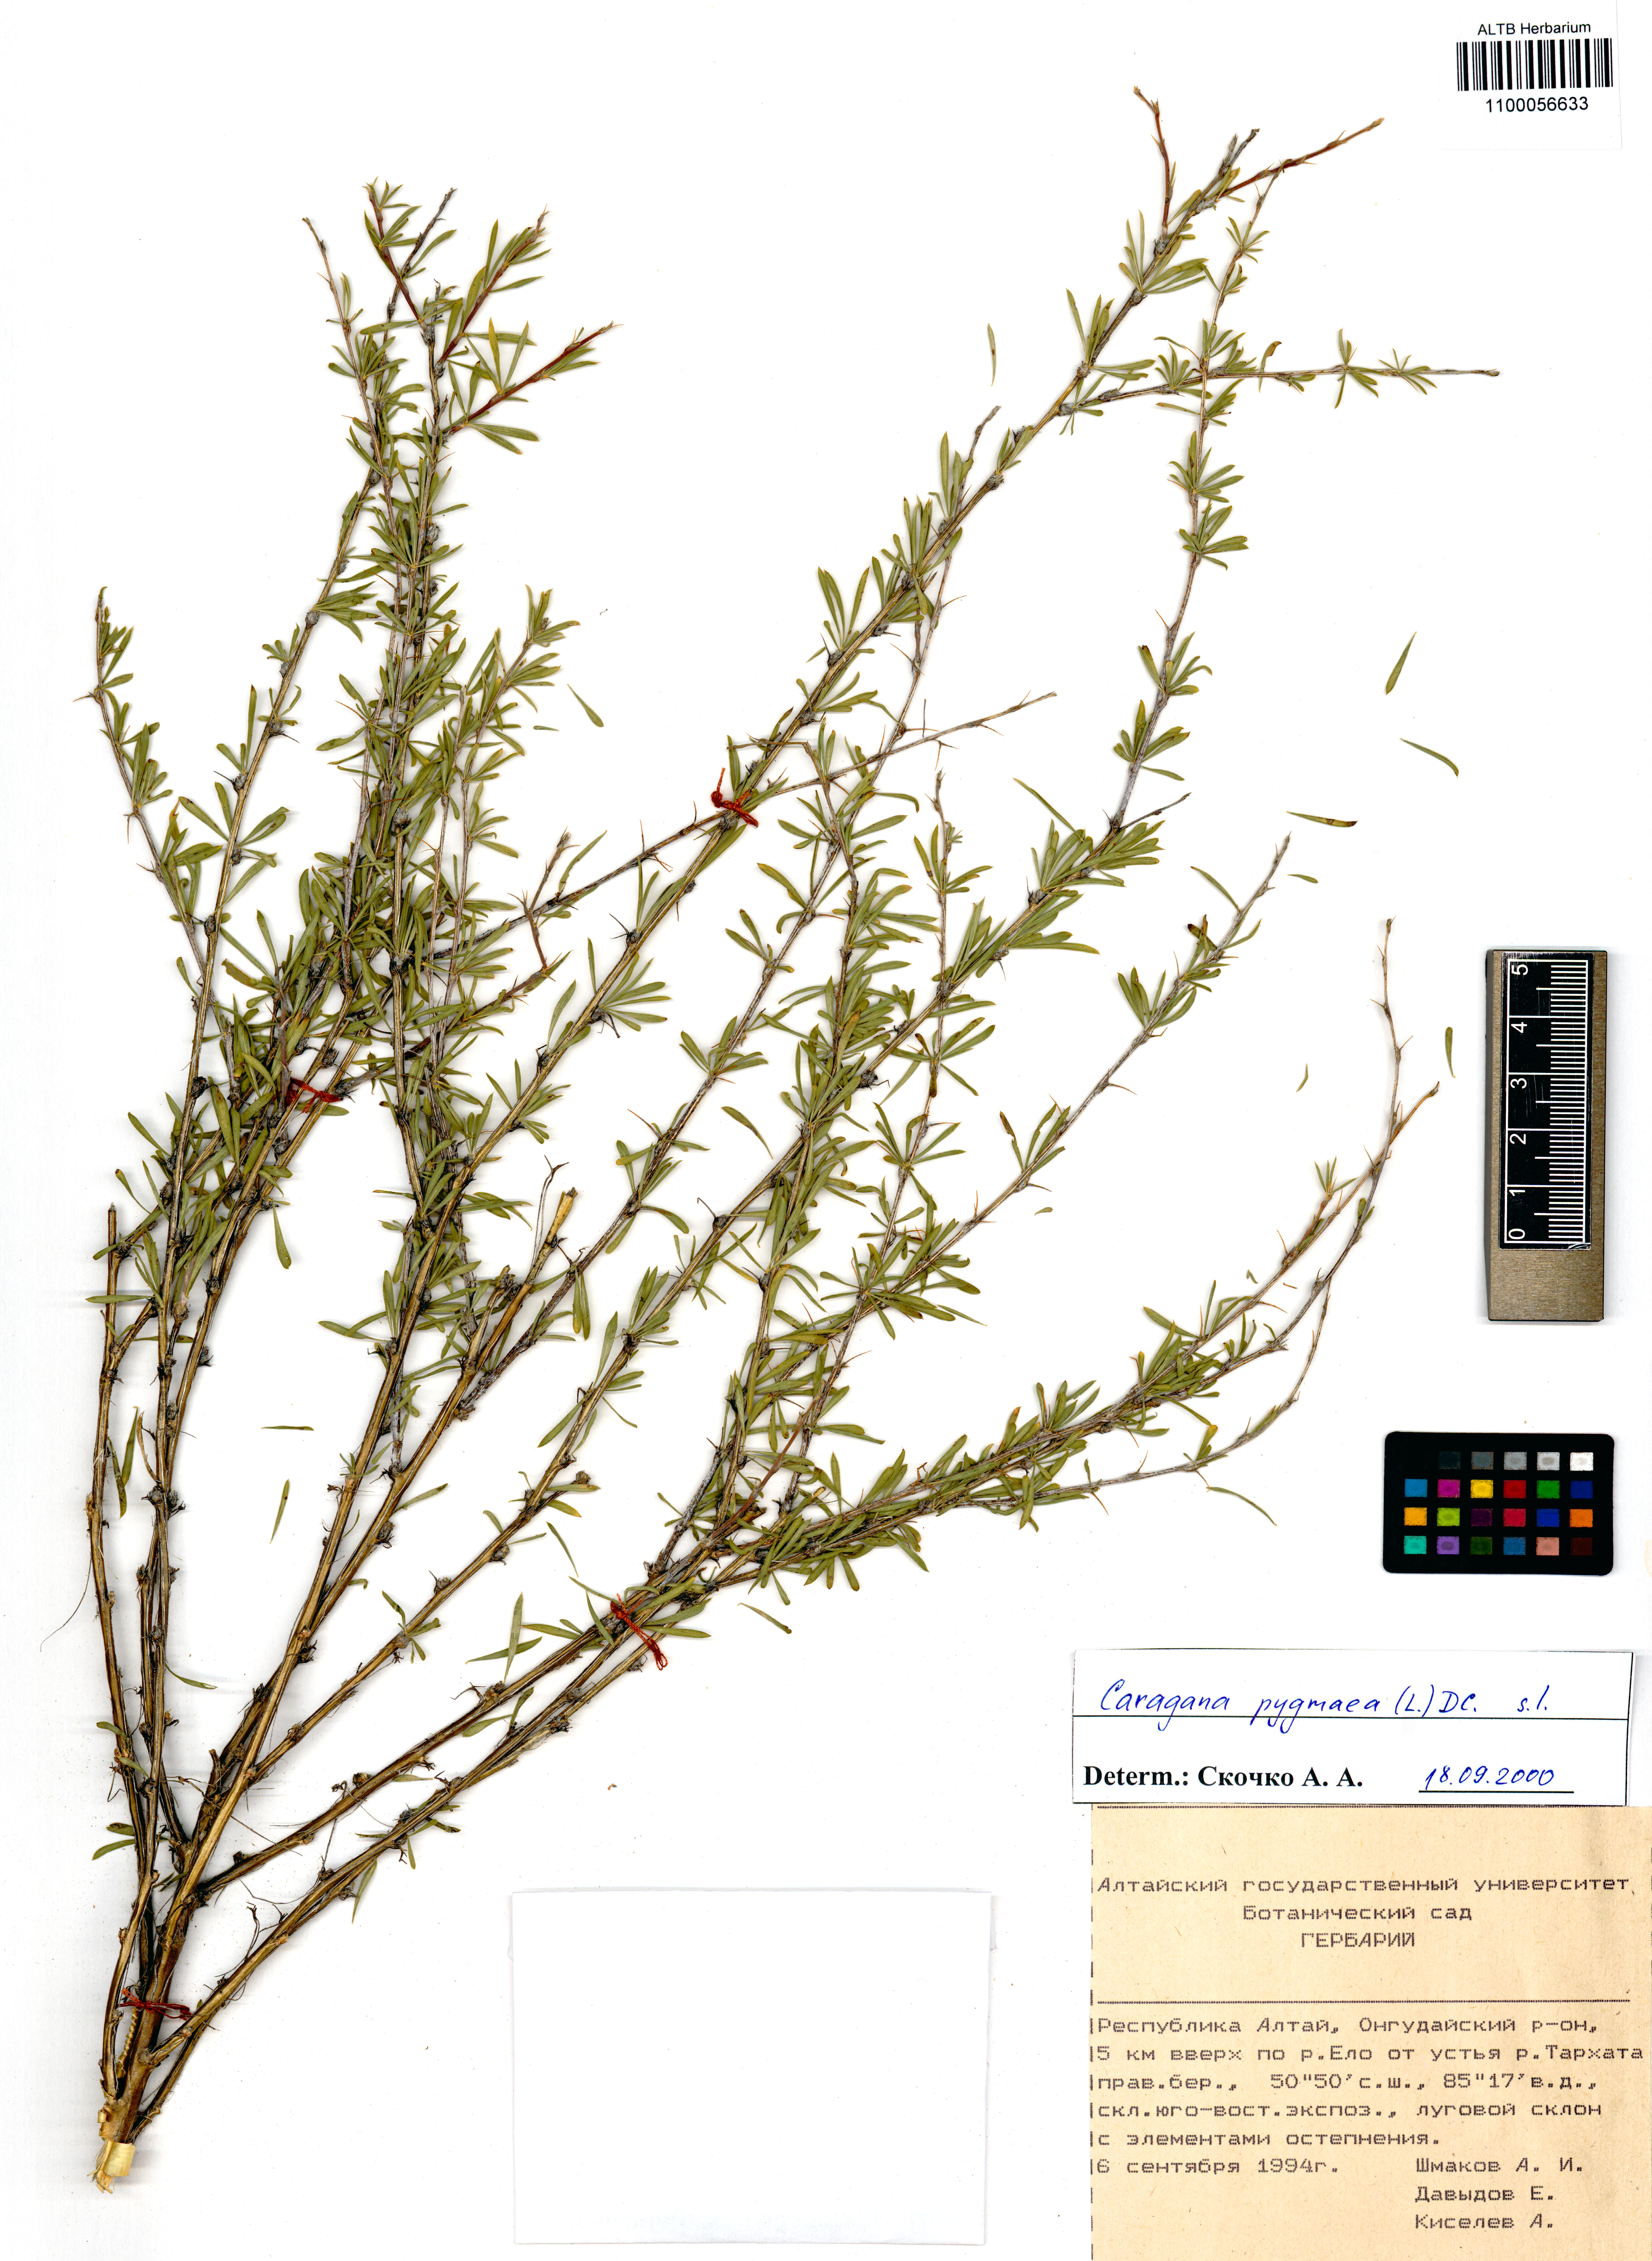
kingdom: Plantae
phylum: Tracheophyta
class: Magnoliopsida
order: Fabales
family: Fabaceae
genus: Caragana
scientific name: Caragana pygmaea
